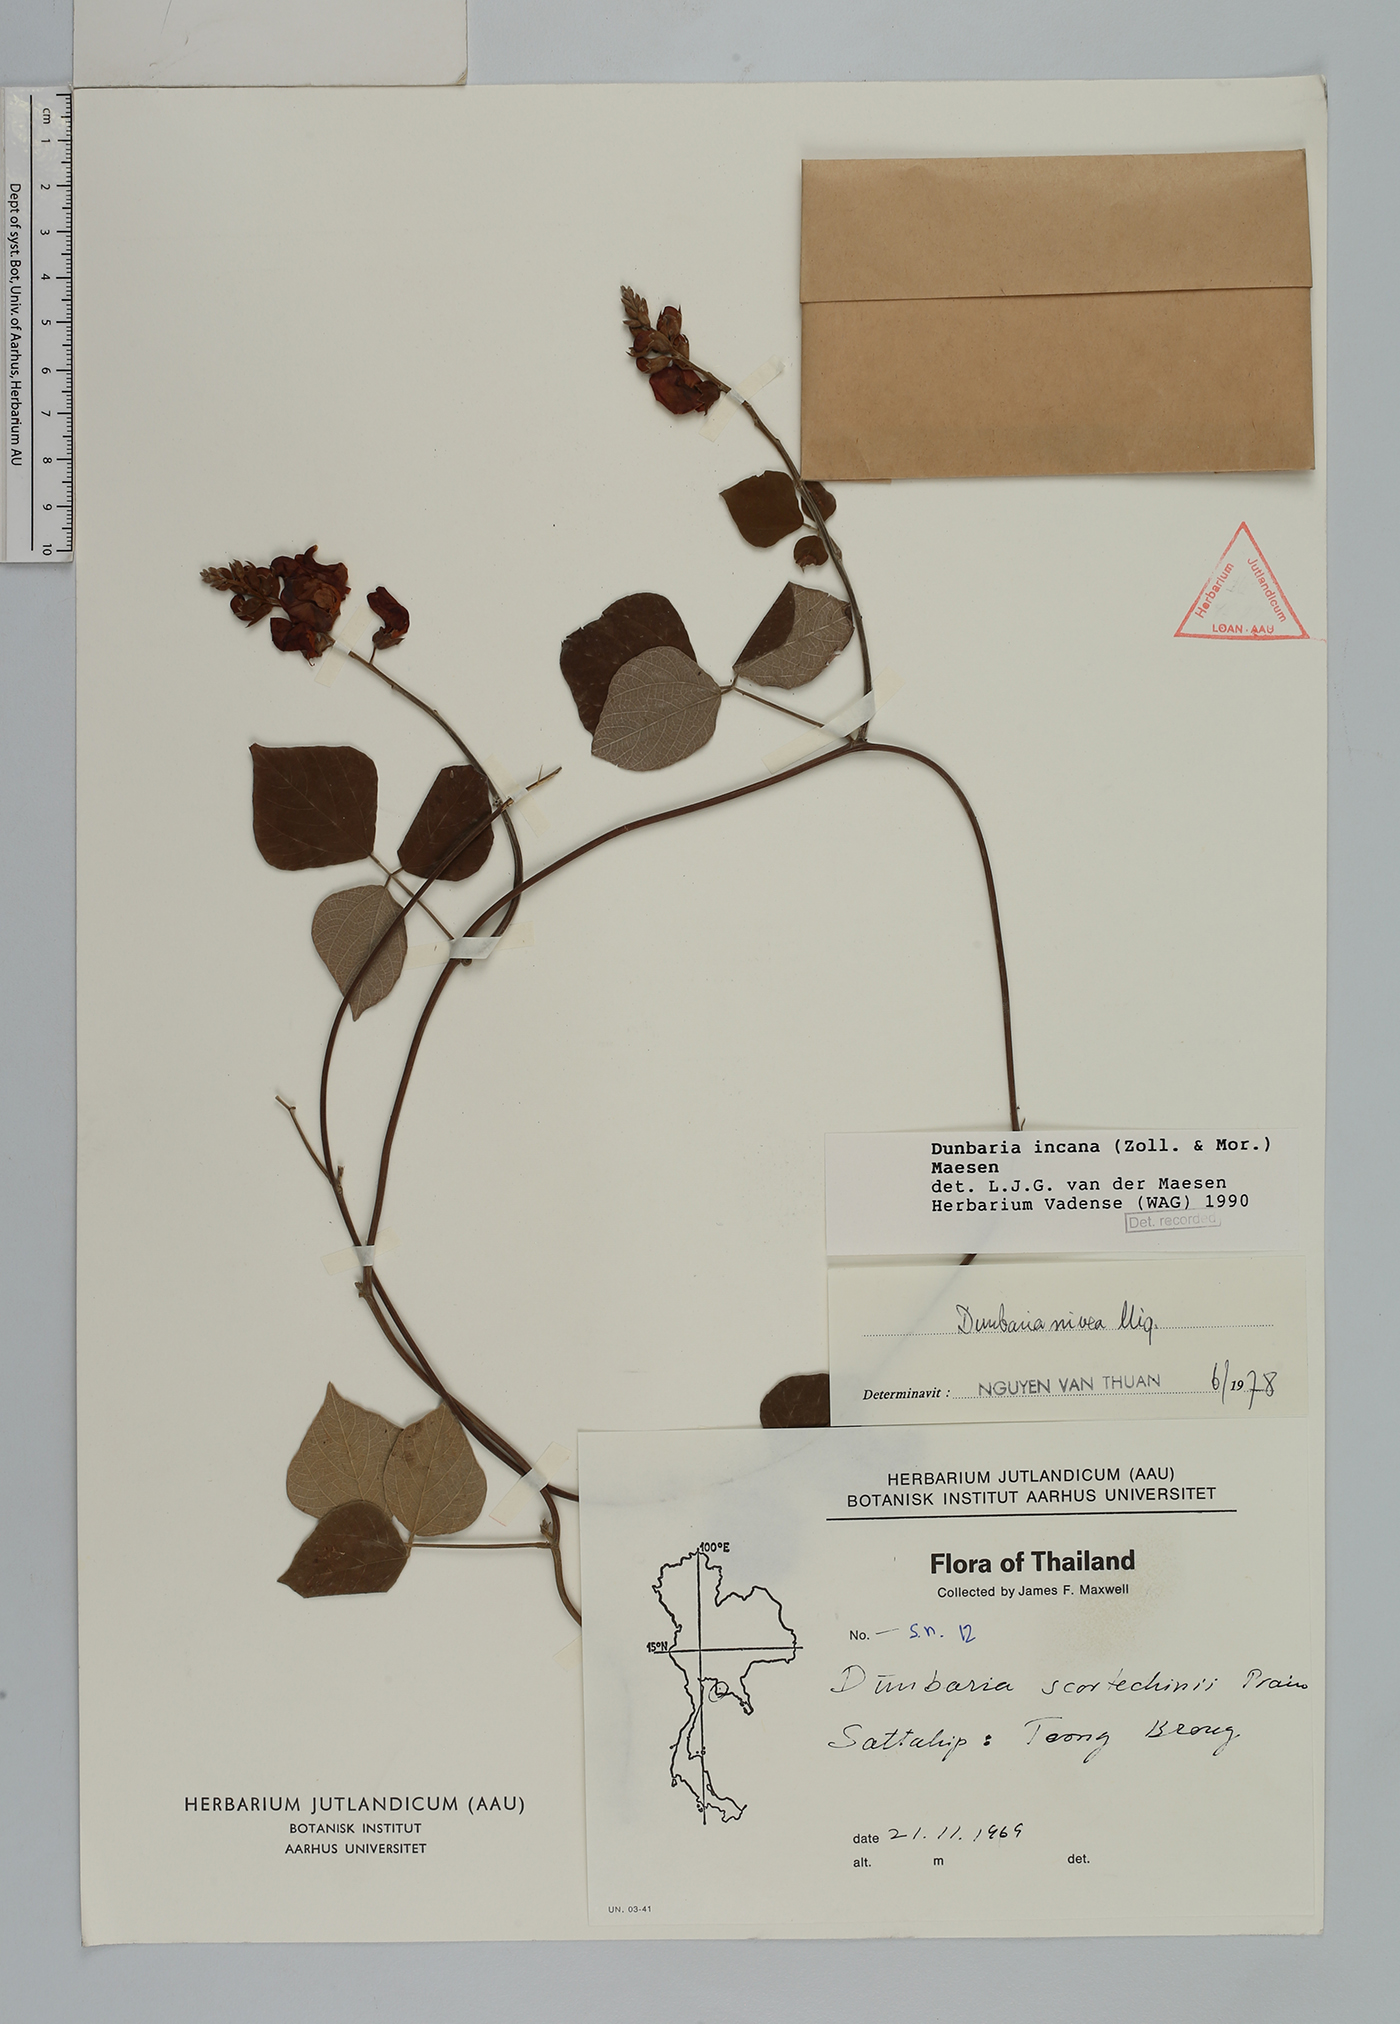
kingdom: Plantae
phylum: Tracheophyta
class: Magnoliopsida
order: Fabales
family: Fabaceae
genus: Dunbaria
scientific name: Dunbaria incana
